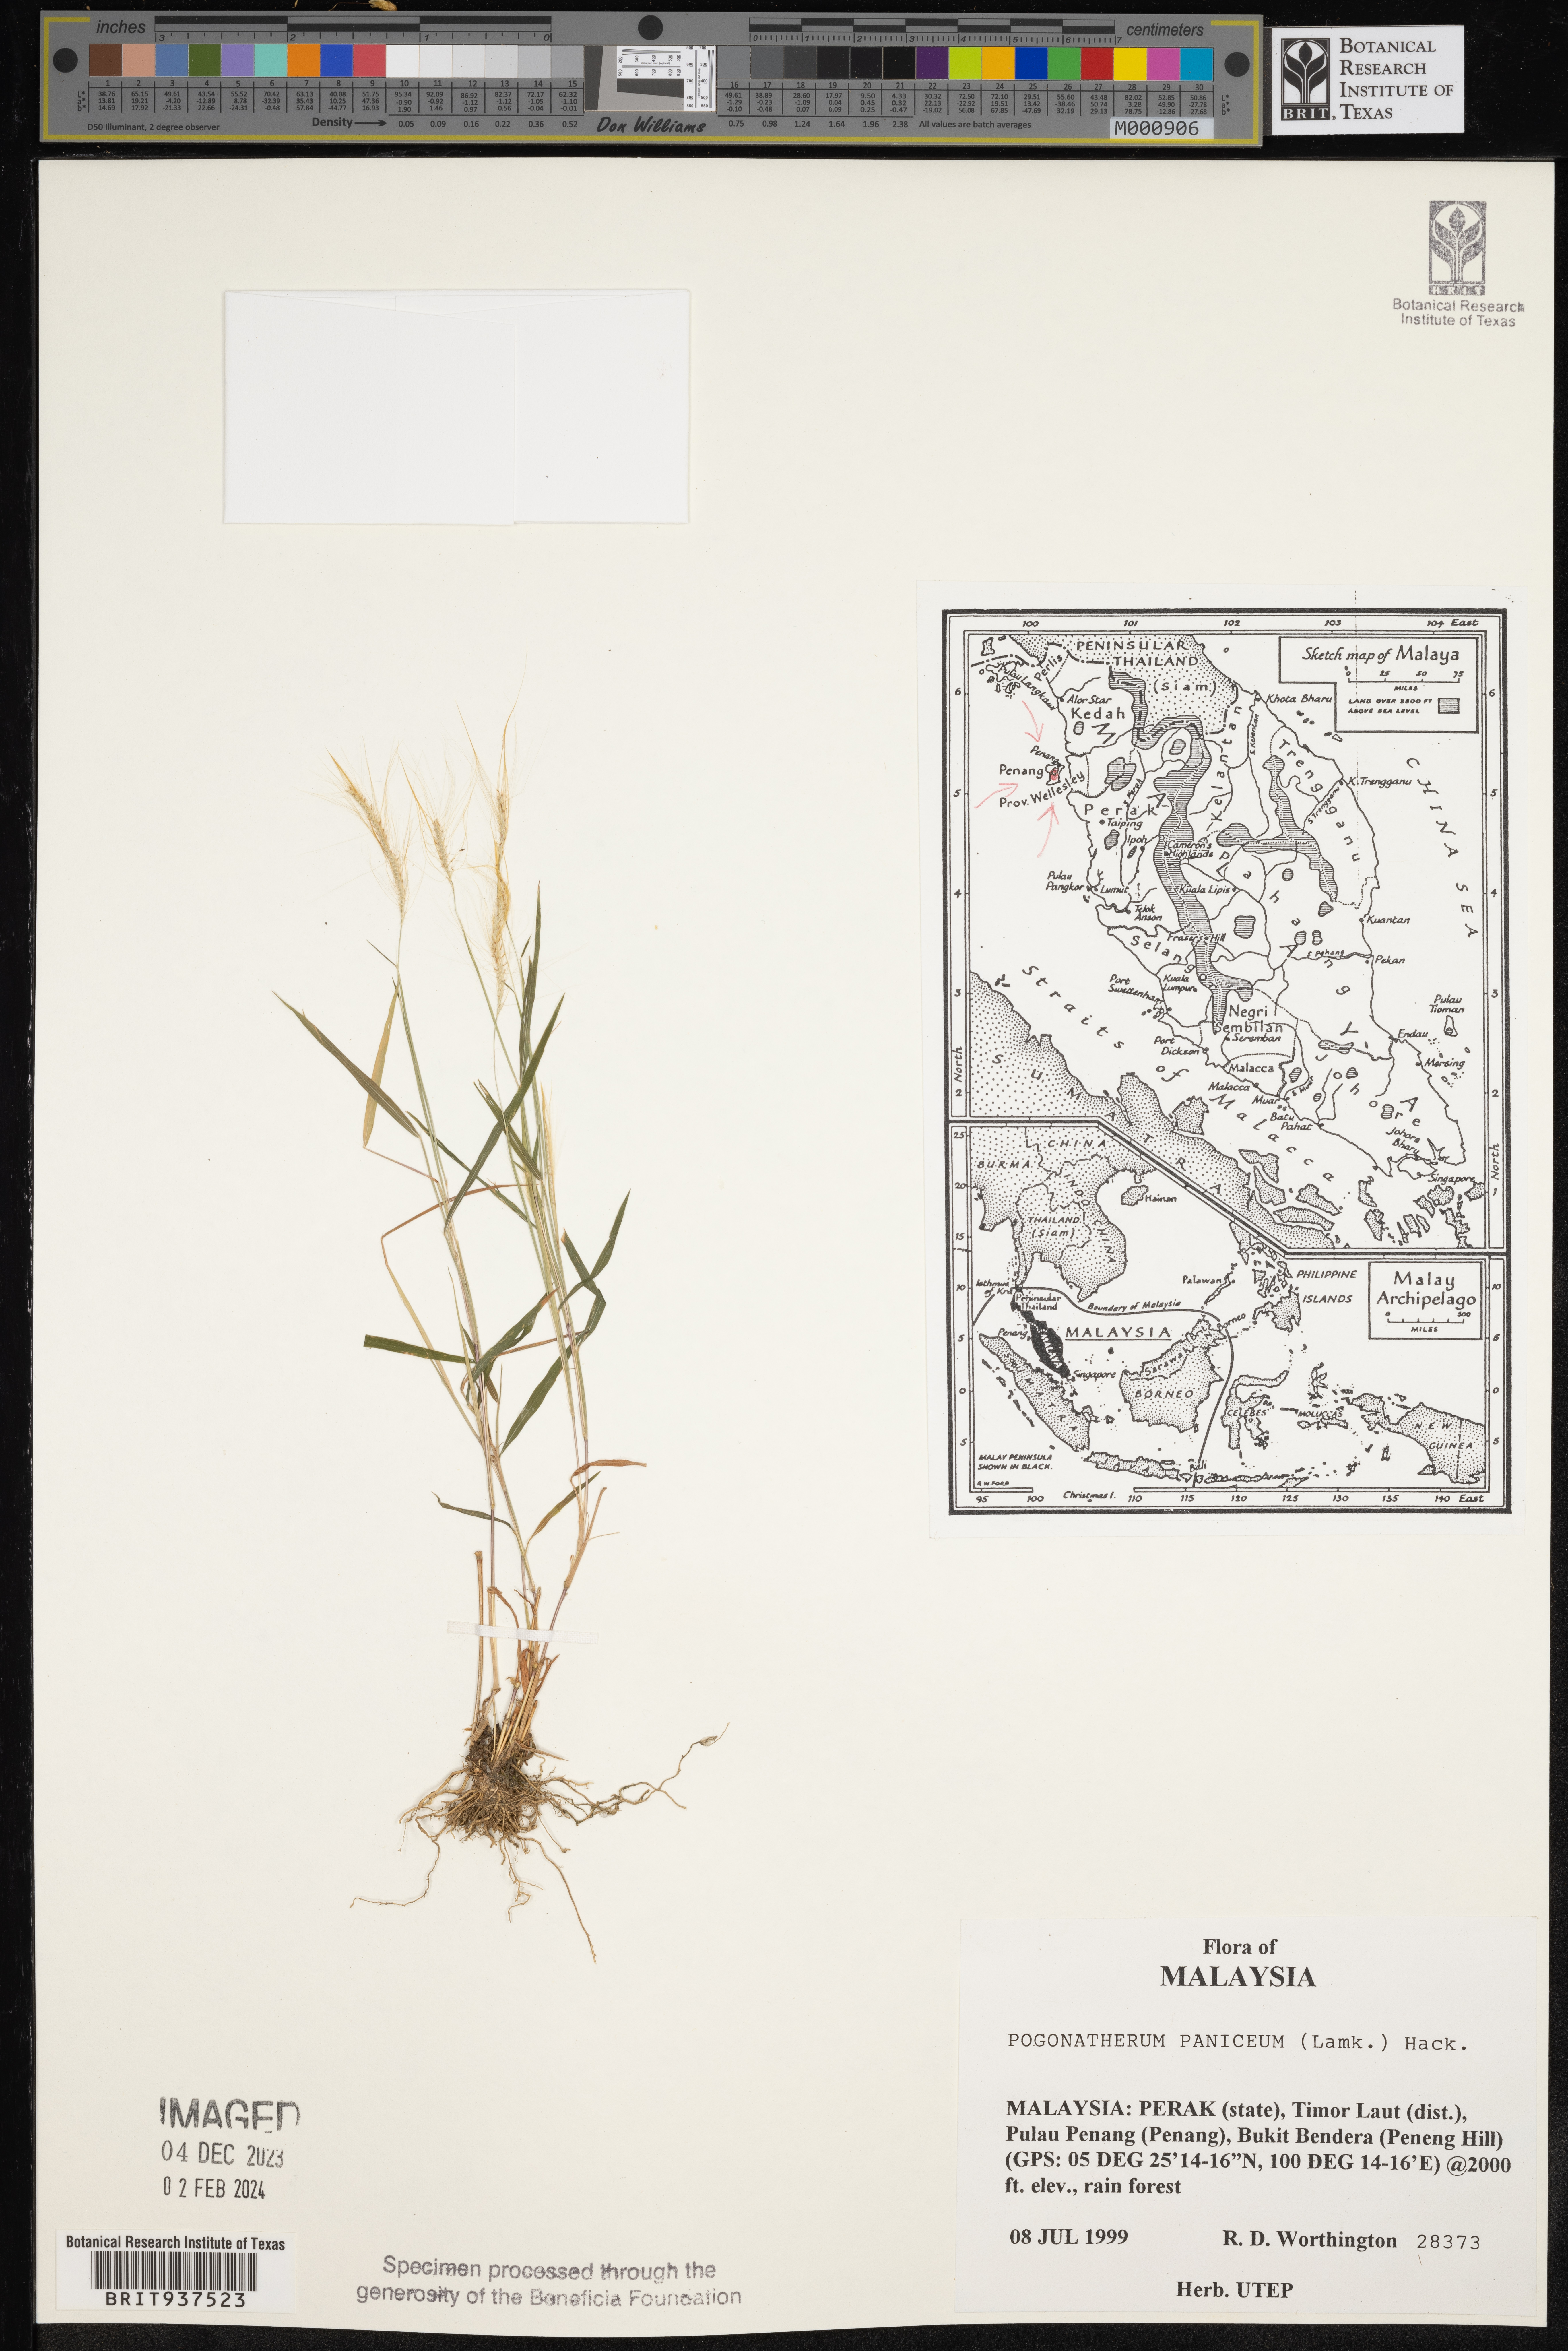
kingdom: Plantae
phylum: Tracheophyta
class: Liliopsida
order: Poales
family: Poaceae
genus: Pogonatherum
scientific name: Pogonatherum
